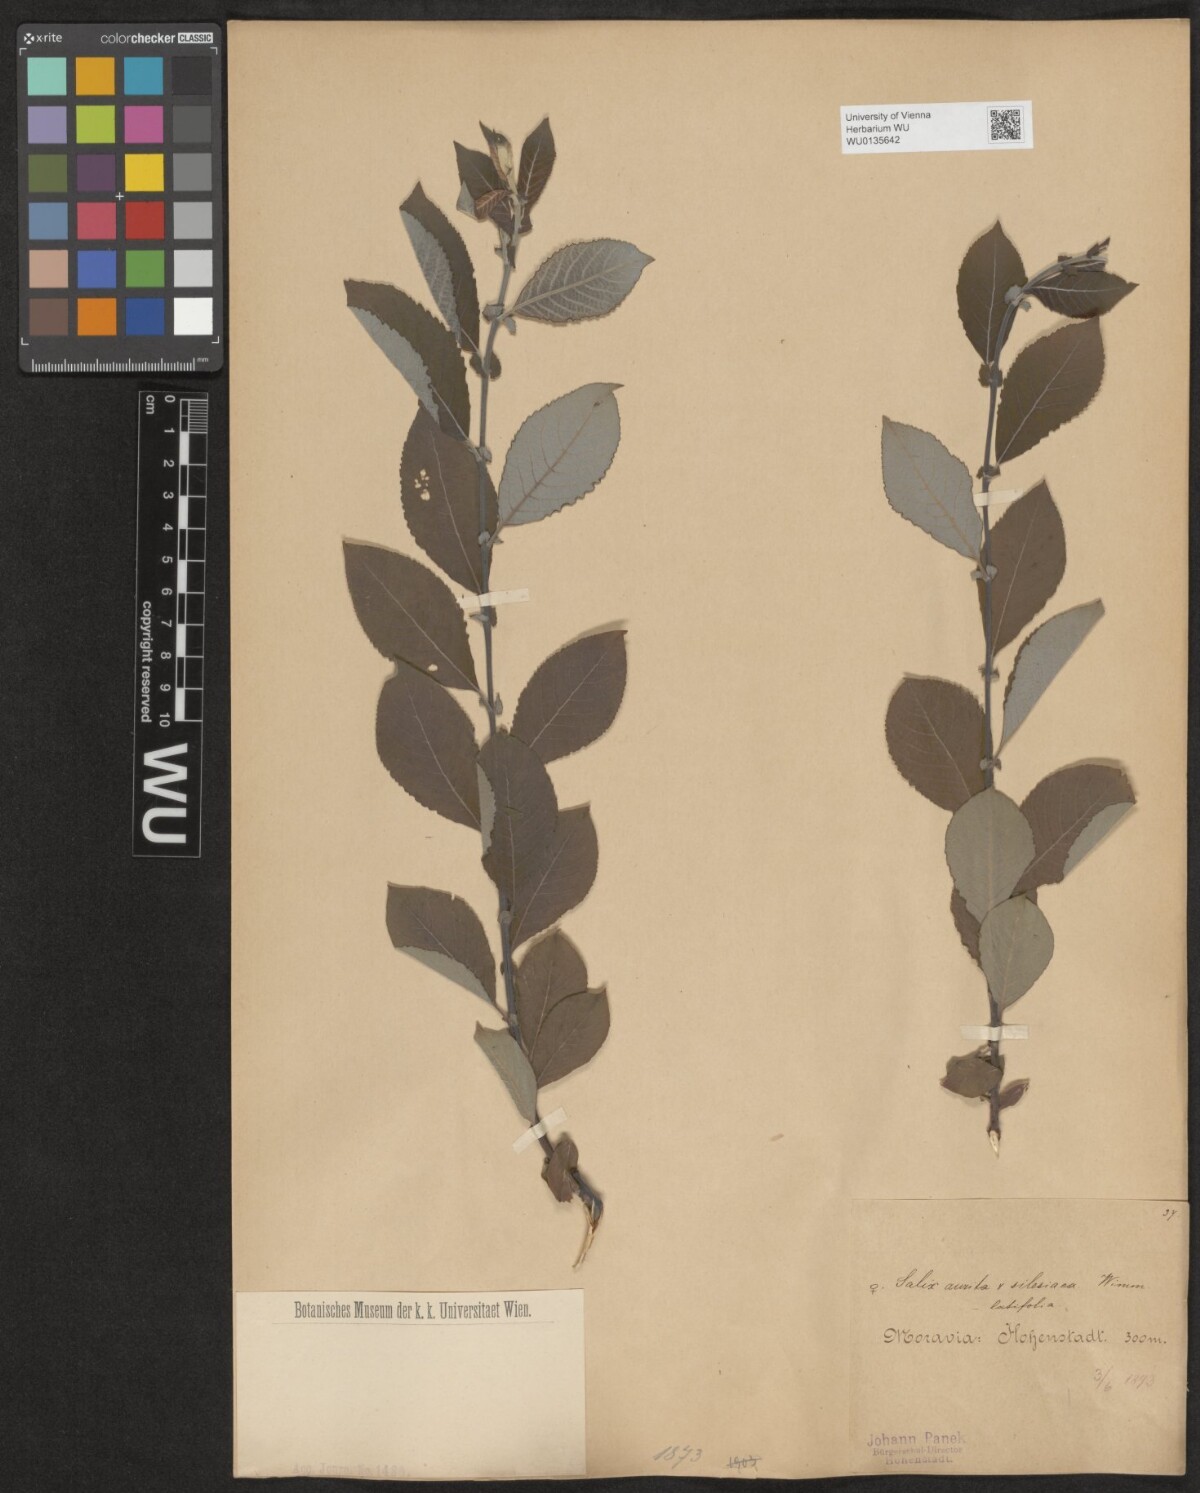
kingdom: Plantae
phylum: Tracheophyta
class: Magnoliopsida
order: Malpighiales
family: Salicaceae
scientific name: Salicaceae
